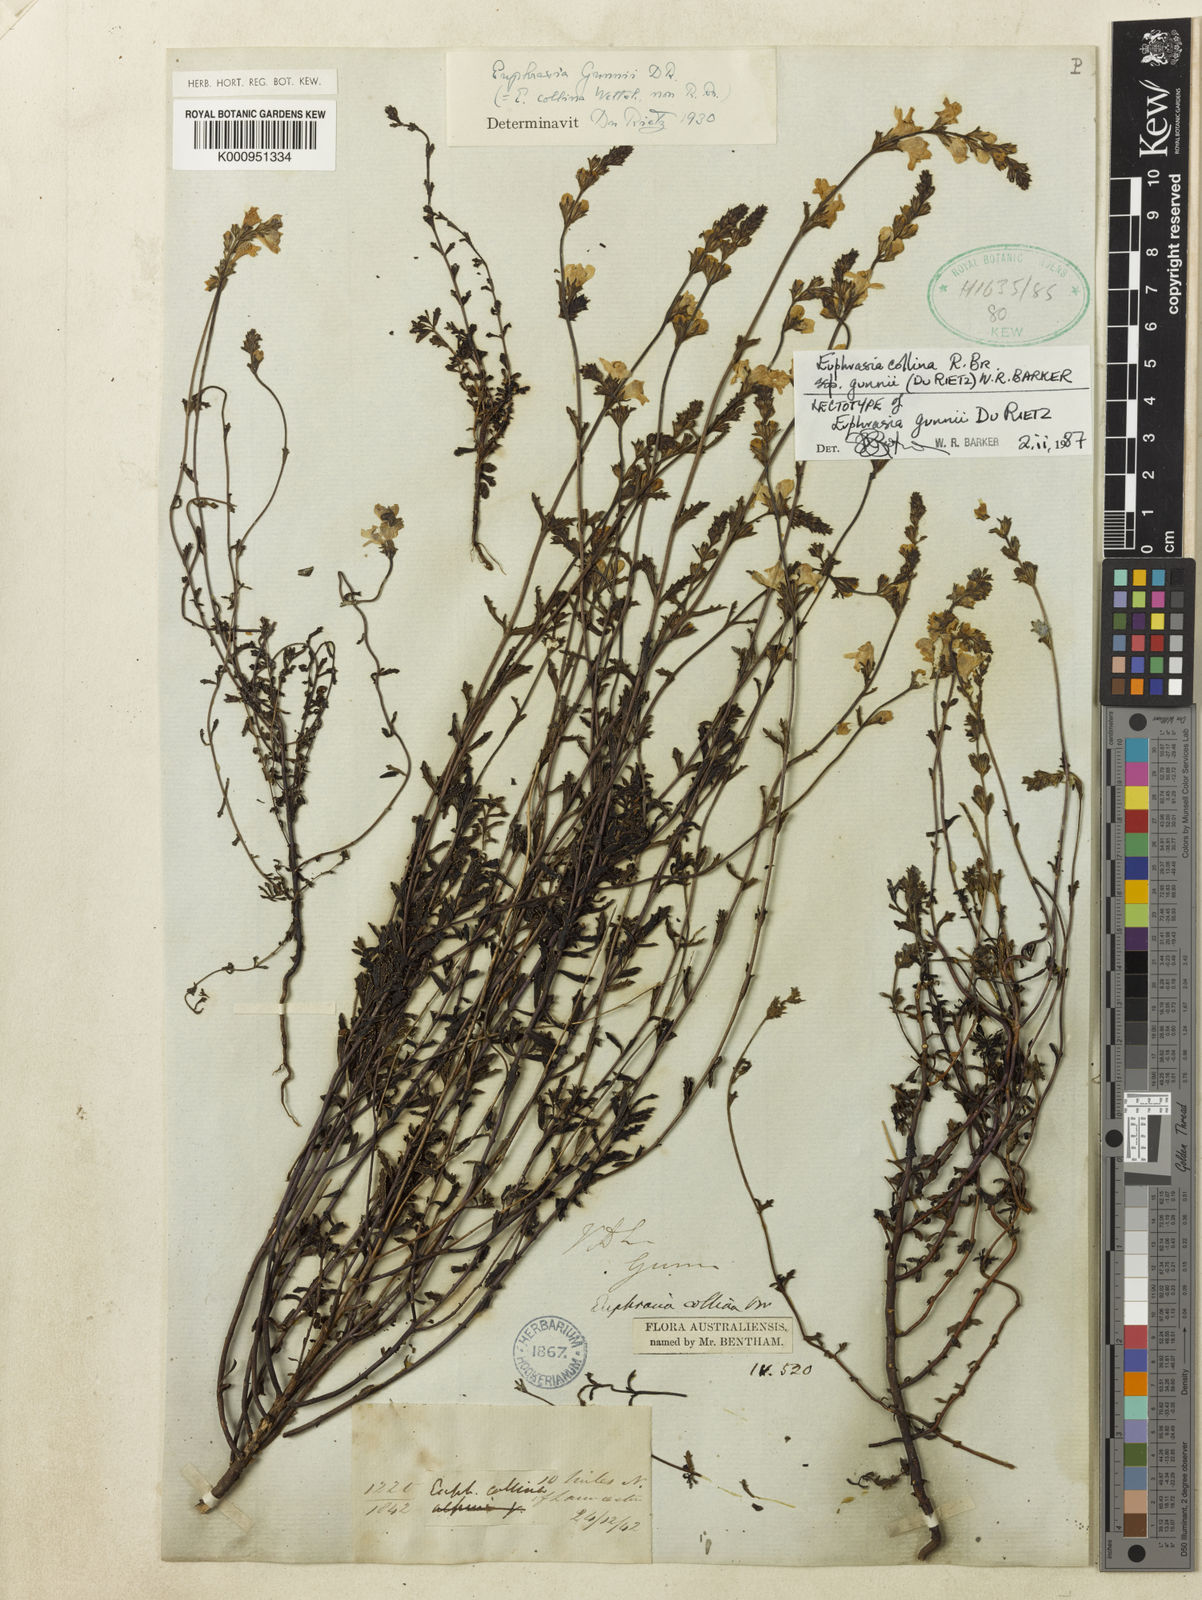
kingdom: Plantae
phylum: Tracheophyta
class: Magnoliopsida
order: Lamiales
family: Orobanchaceae
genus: Euphrasia
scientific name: Euphrasia collina
